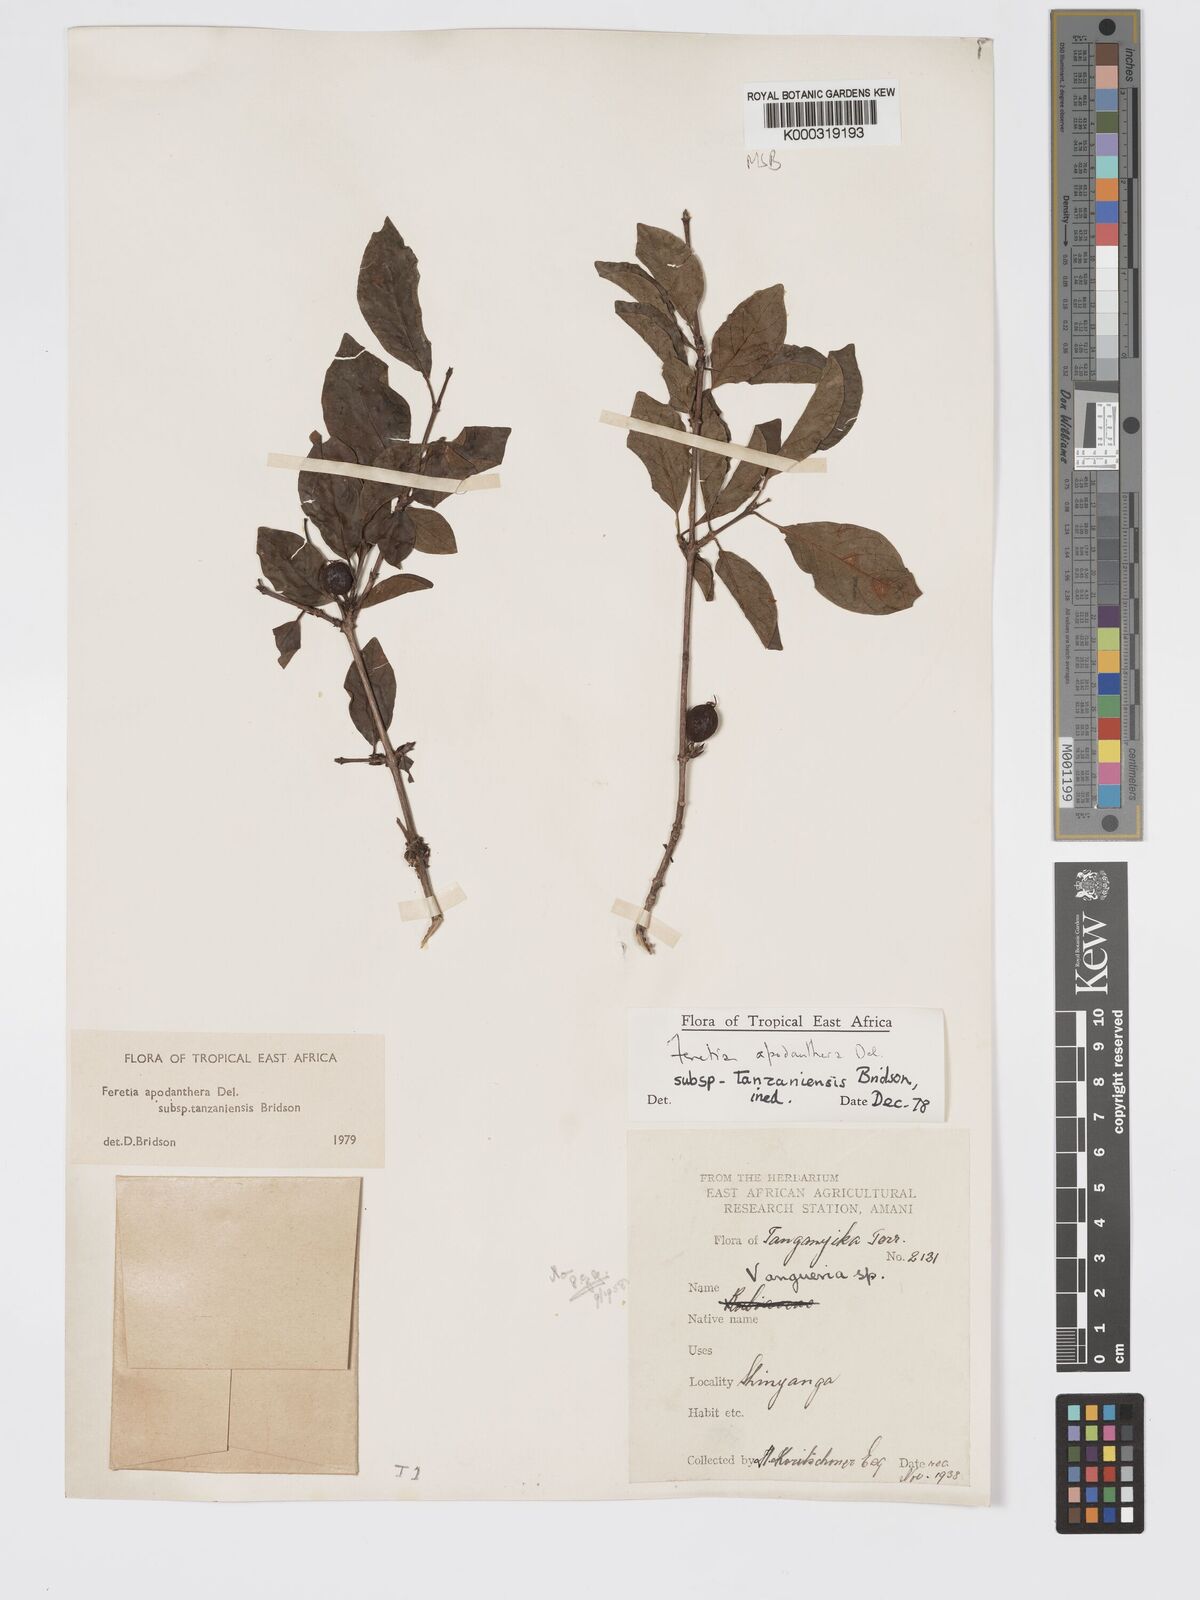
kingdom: Plantae
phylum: Tracheophyta
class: Magnoliopsida
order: Gentianales
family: Rubiaceae
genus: Feretia
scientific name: Feretia apodanthera
